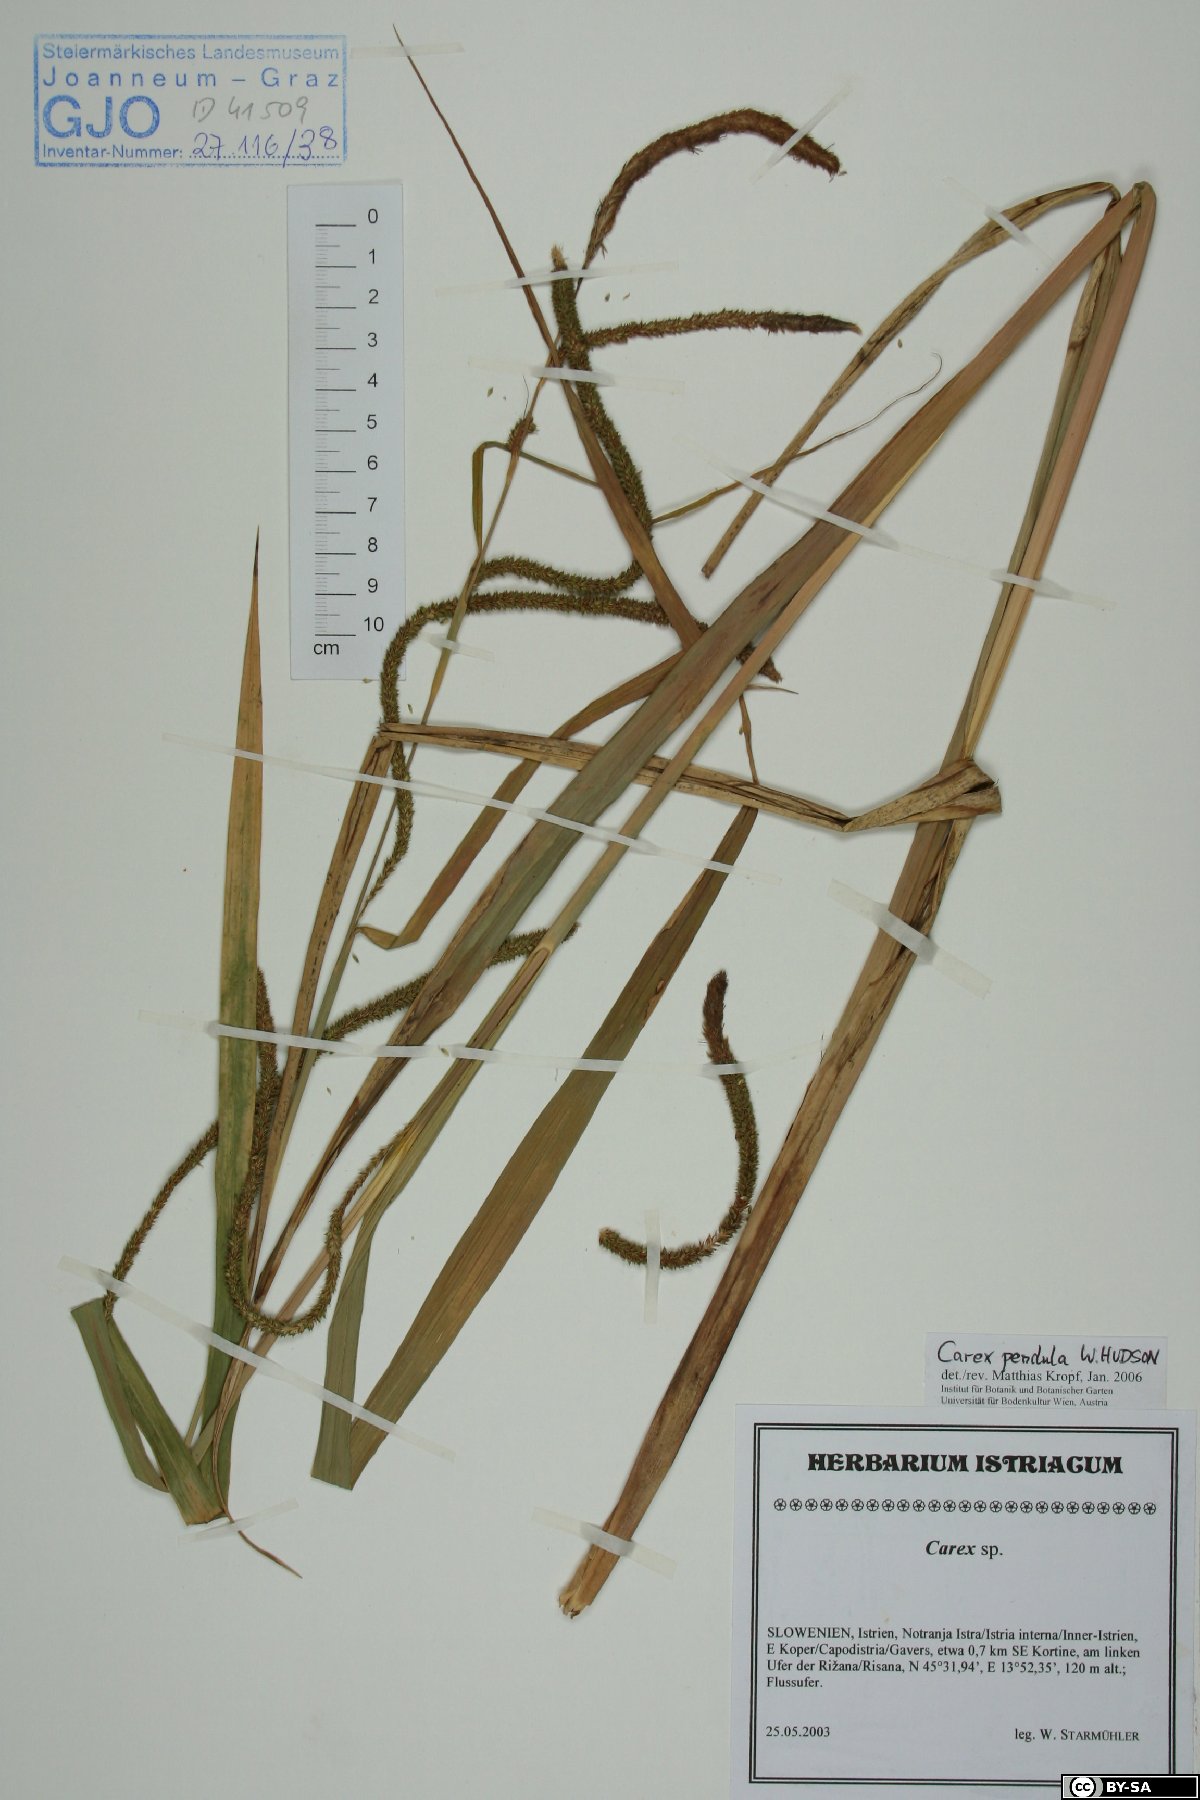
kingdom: Plantae
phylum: Tracheophyta
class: Liliopsida
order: Poales
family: Cyperaceae
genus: Carex
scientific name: Carex pendula
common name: Pendulous sedge
